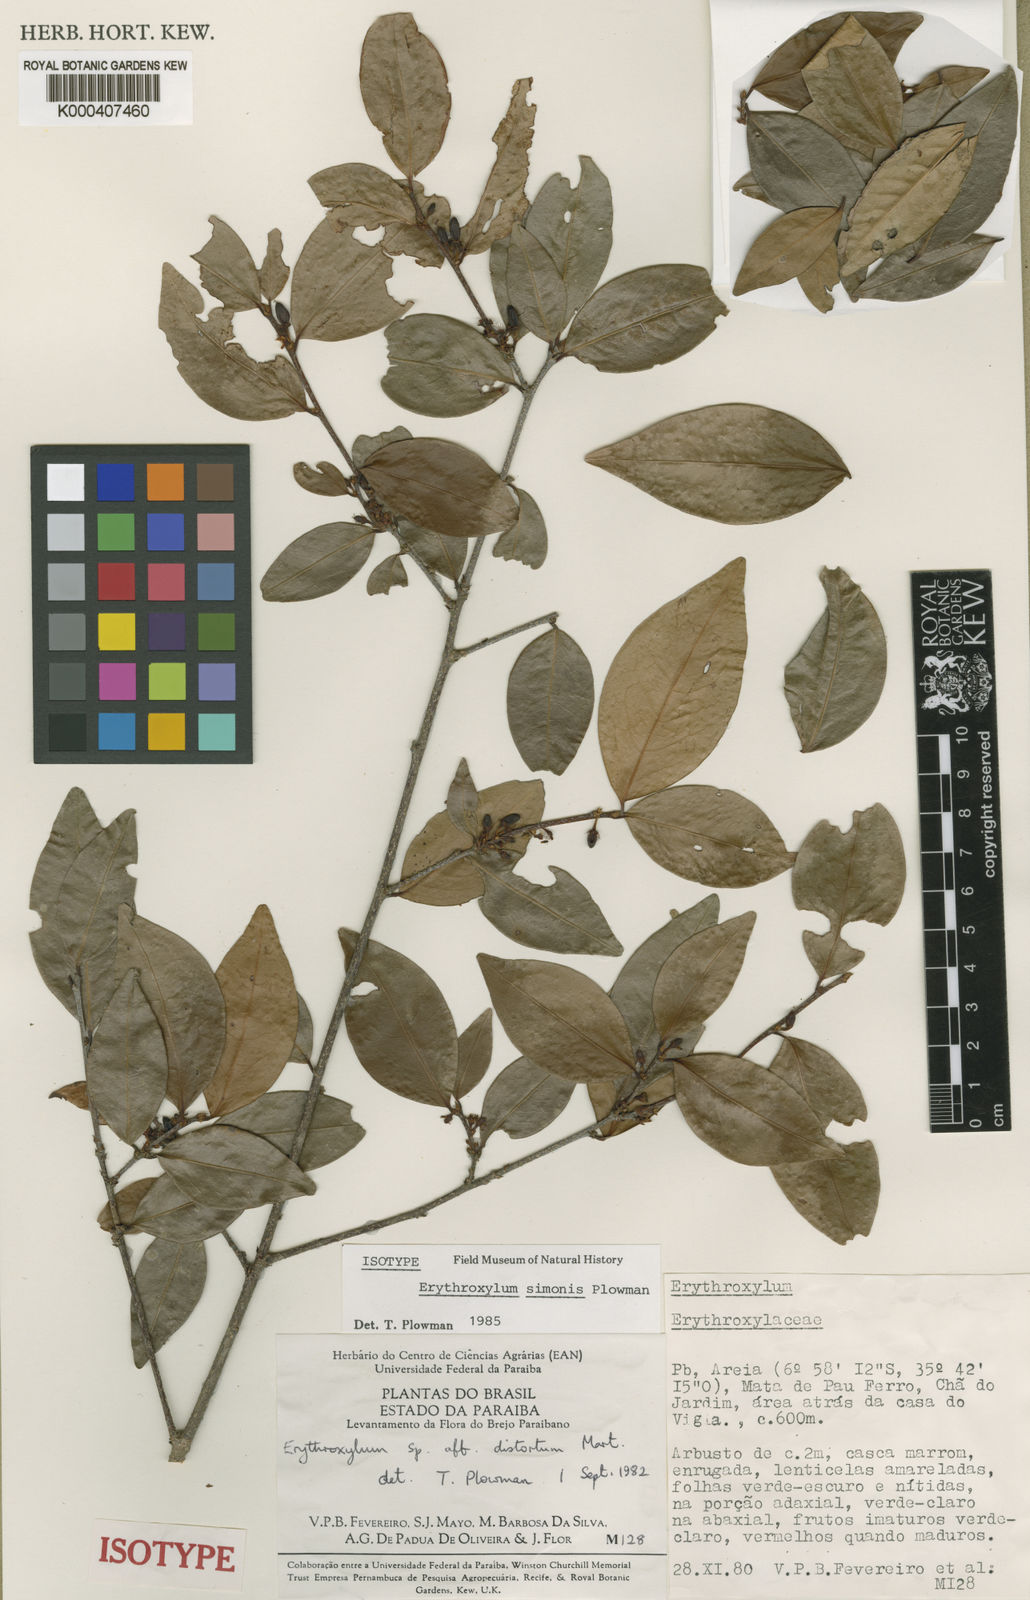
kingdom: Plantae
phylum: Tracheophyta
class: Magnoliopsida
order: Malpighiales
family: Erythroxylaceae
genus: Erythroxylum
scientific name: Erythroxylum simonis
